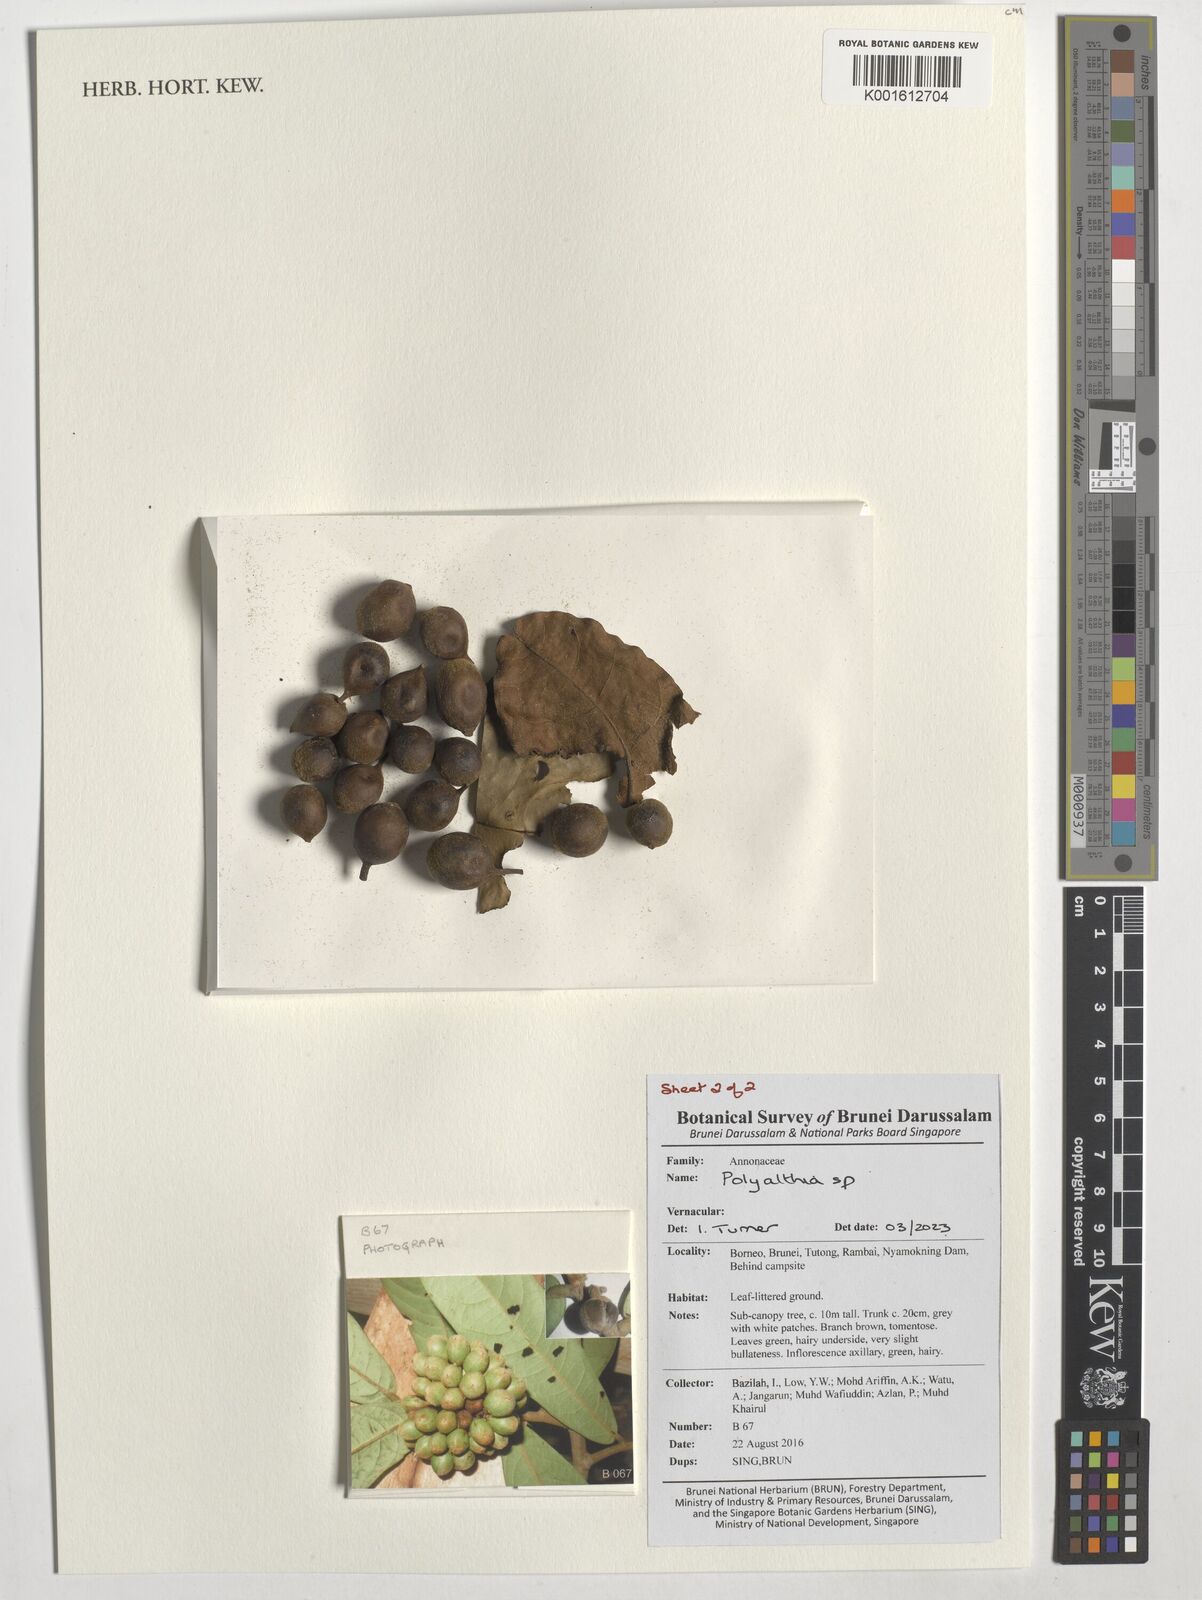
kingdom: Plantae
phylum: Tracheophyta
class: Magnoliopsida
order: Magnoliales
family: Annonaceae
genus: Polyalthia
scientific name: Polyalthia
